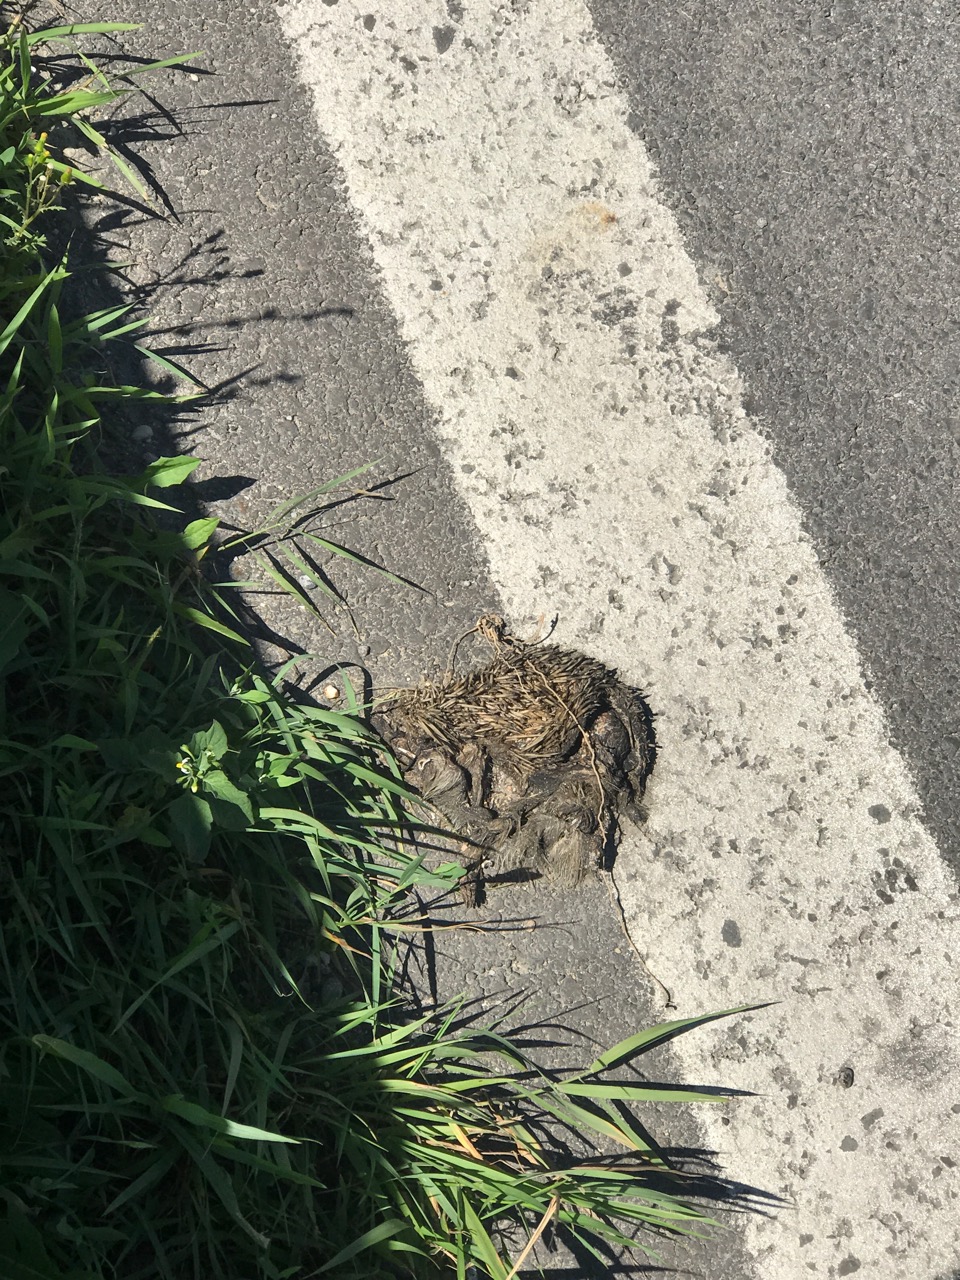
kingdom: Animalia
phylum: Chordata
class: Mammalia
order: Erinaceomorpha
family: Erinaceidae
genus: Erinaceus
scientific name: Erinaceus
